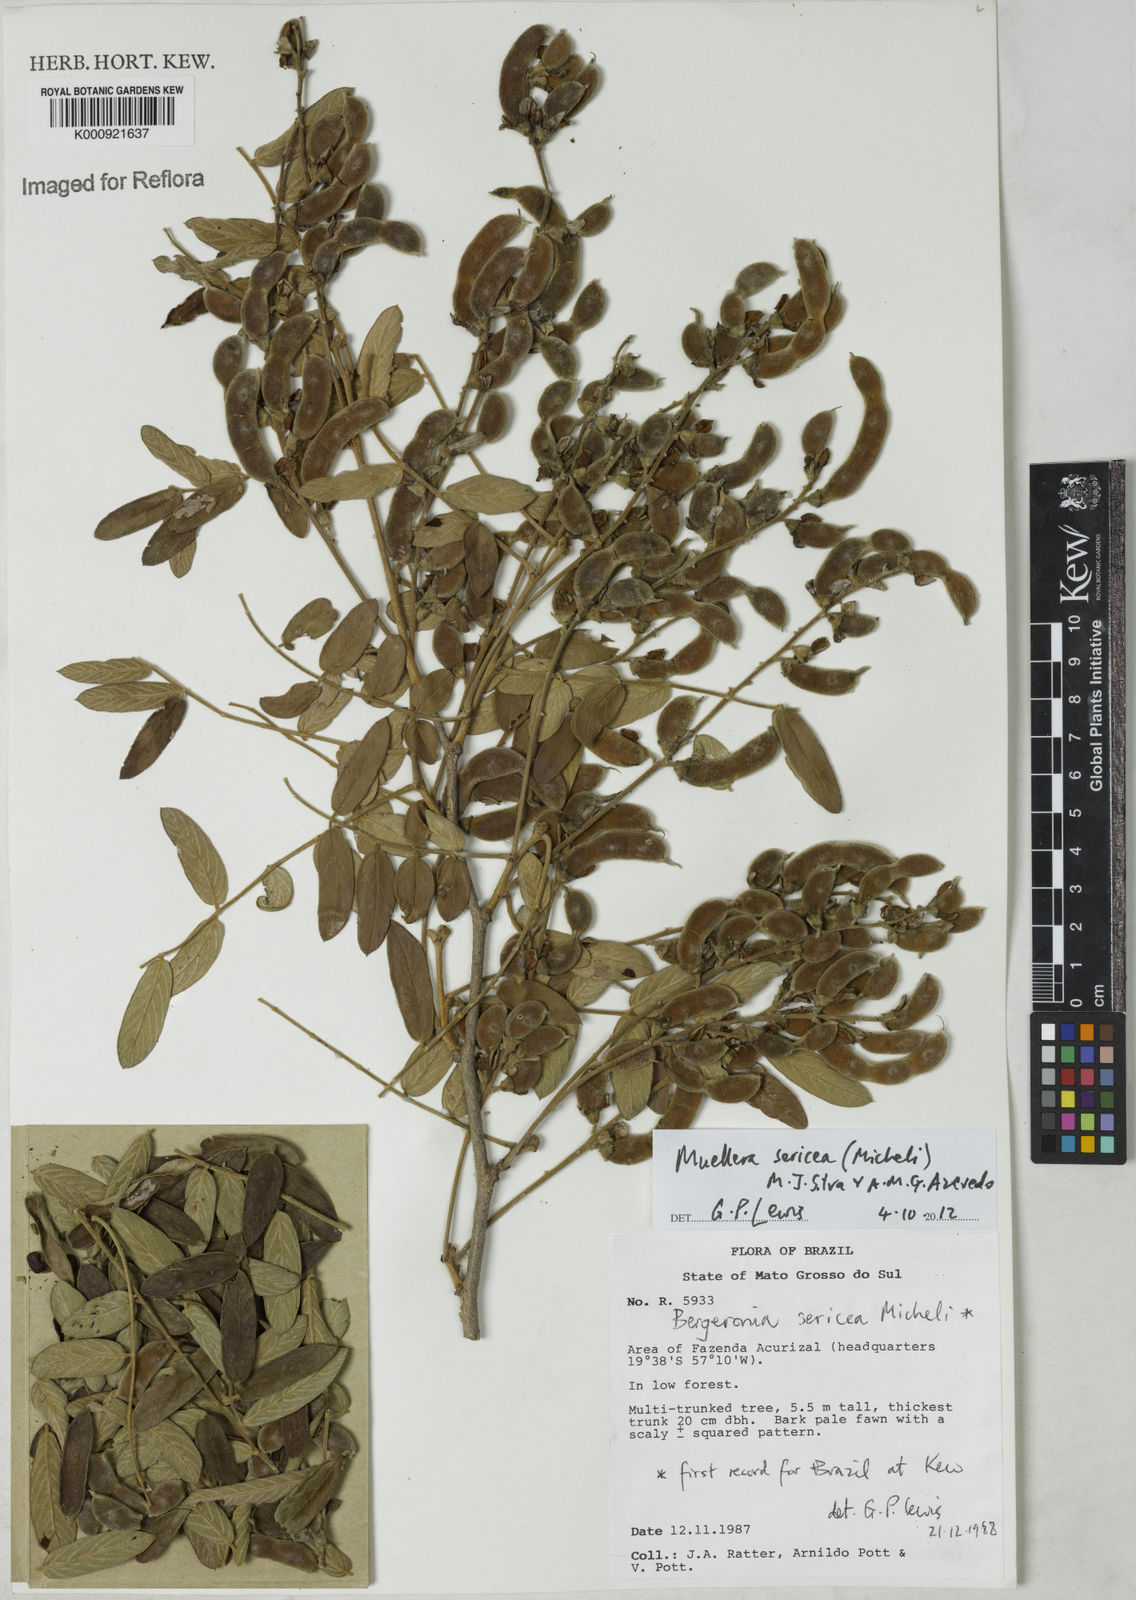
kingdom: Plantae
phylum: Tracheophyta
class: Magnoliopsida
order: Fabales
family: Fabaceae
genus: Muellera
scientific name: Muellera sericea
